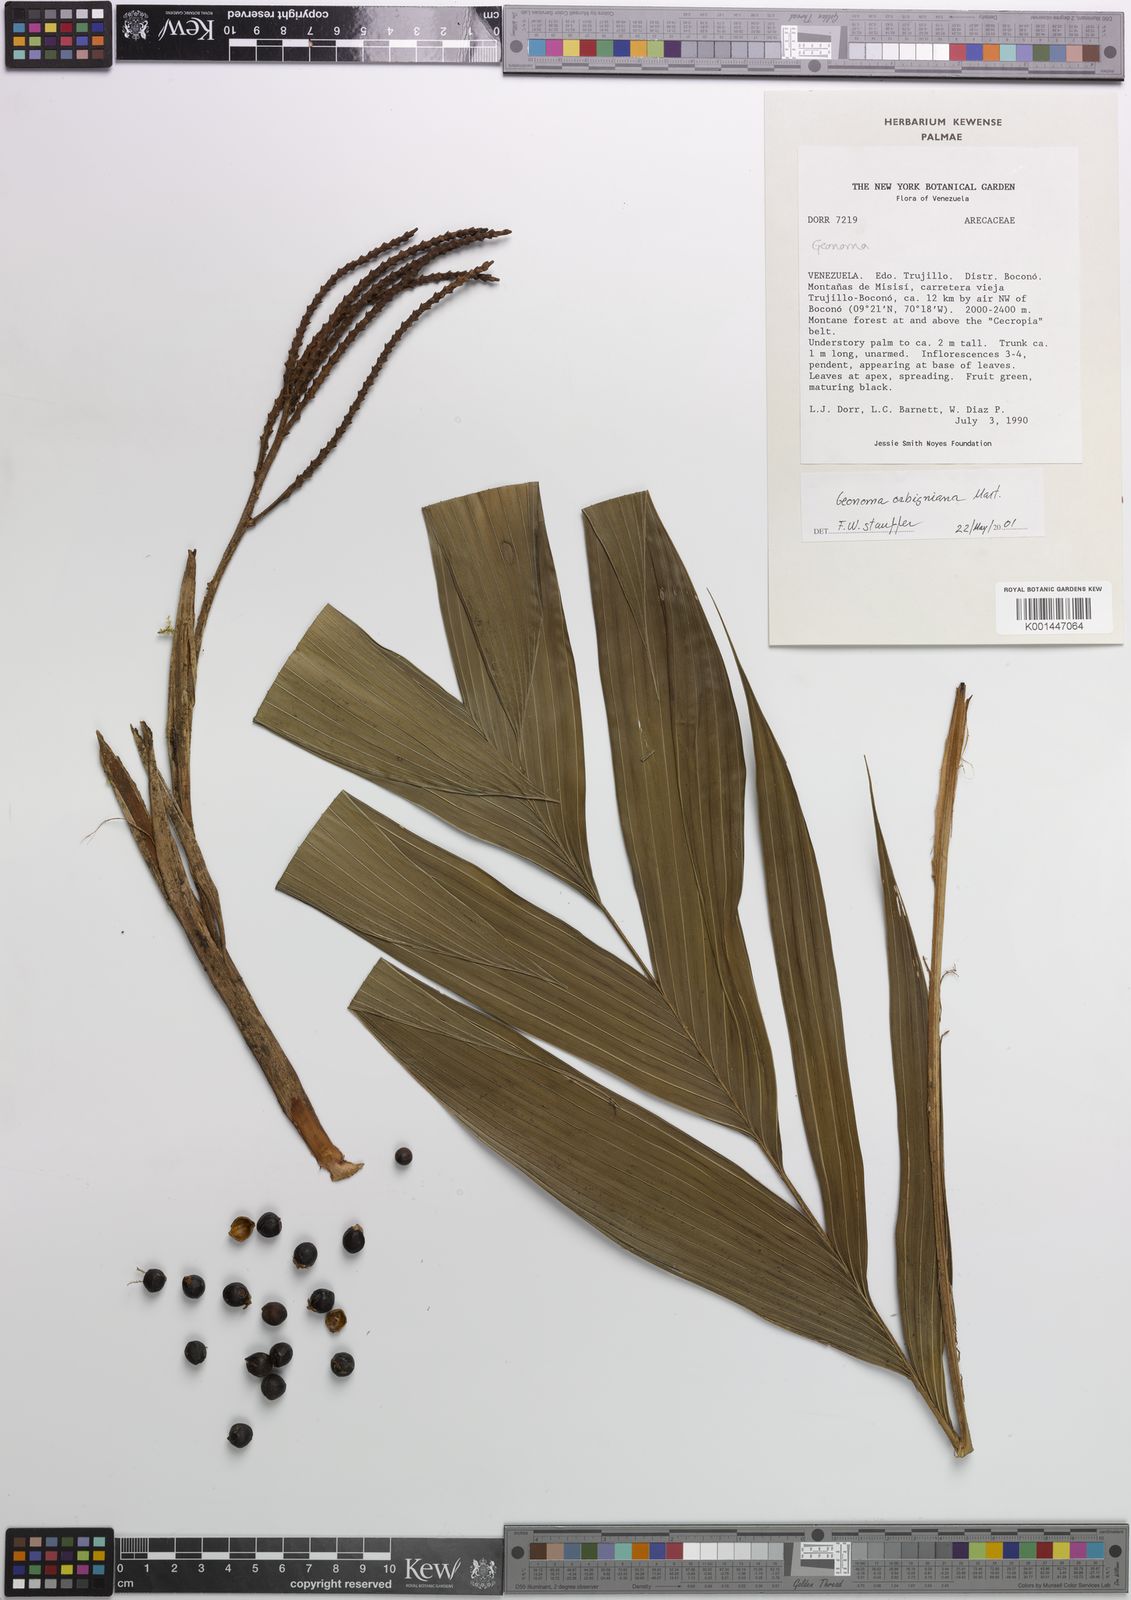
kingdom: Plantae
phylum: Tracheophyta
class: Liliopsida
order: Arecales
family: Arecaceae
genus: Geonoma
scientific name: Geonoma
